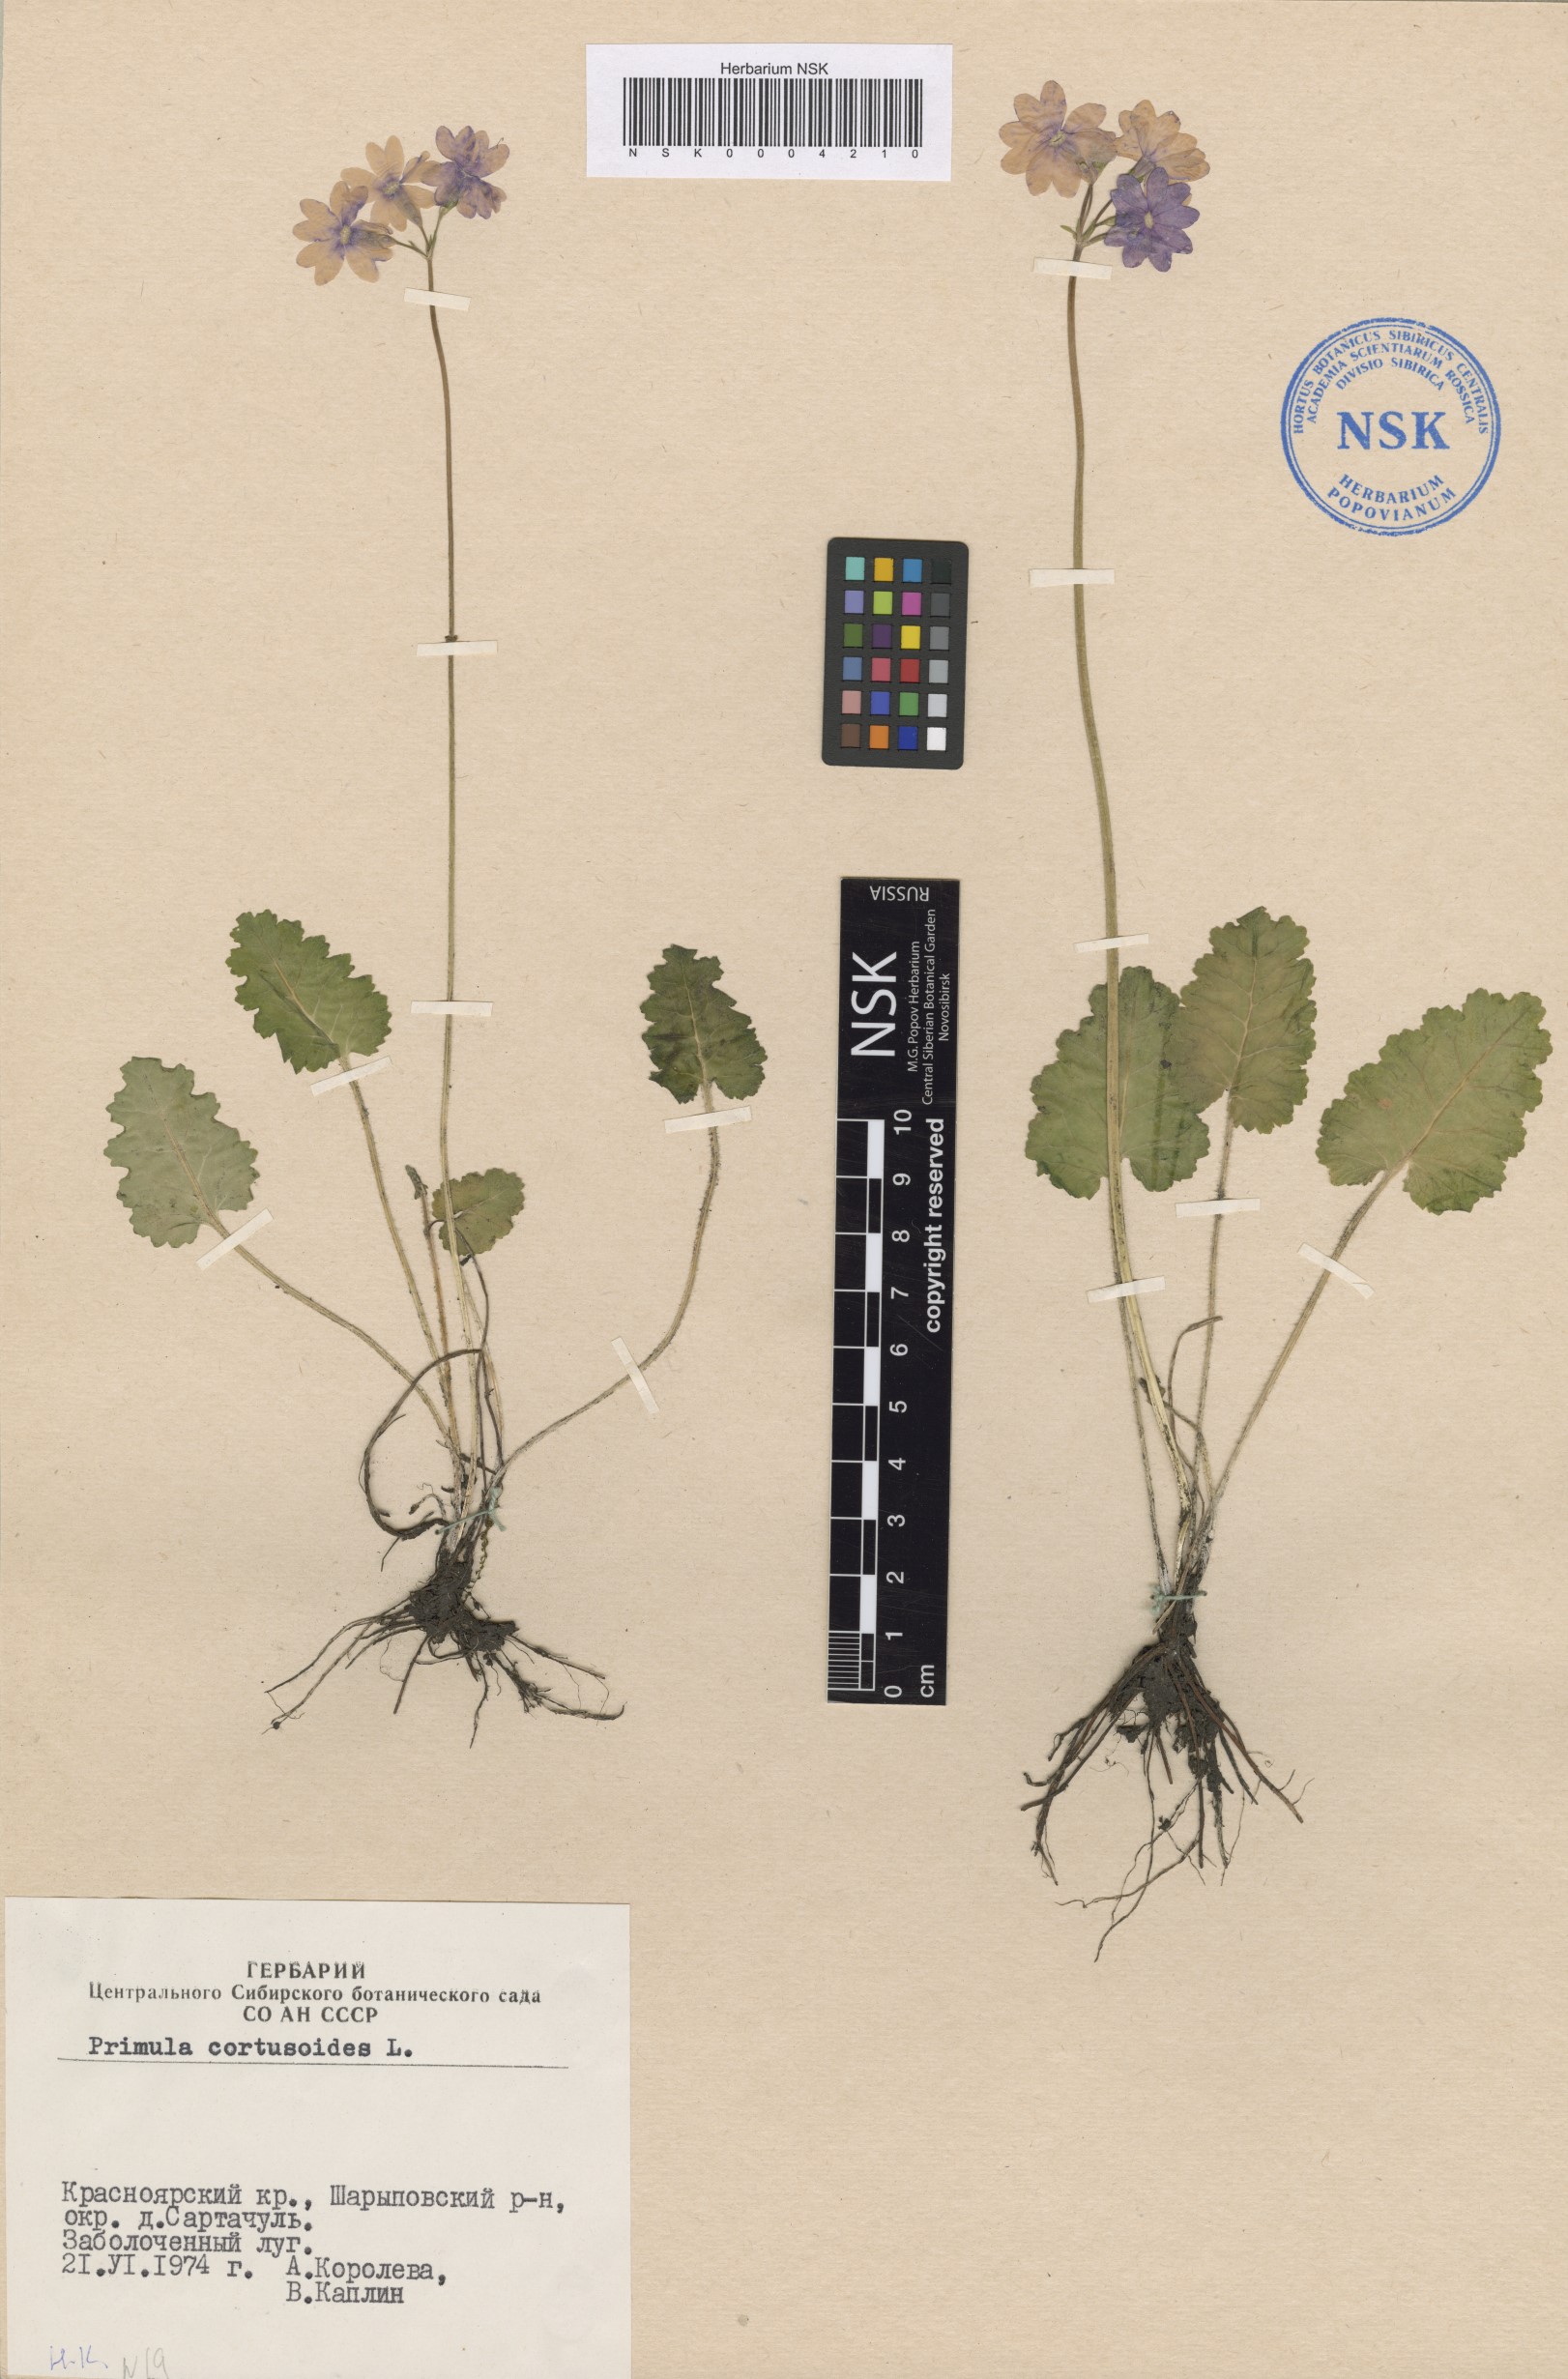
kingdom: Plantae
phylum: Tracheophyta
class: Magnoliopsida
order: Ericales
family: Primulaceae
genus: Primula
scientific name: Primula cortusoides
